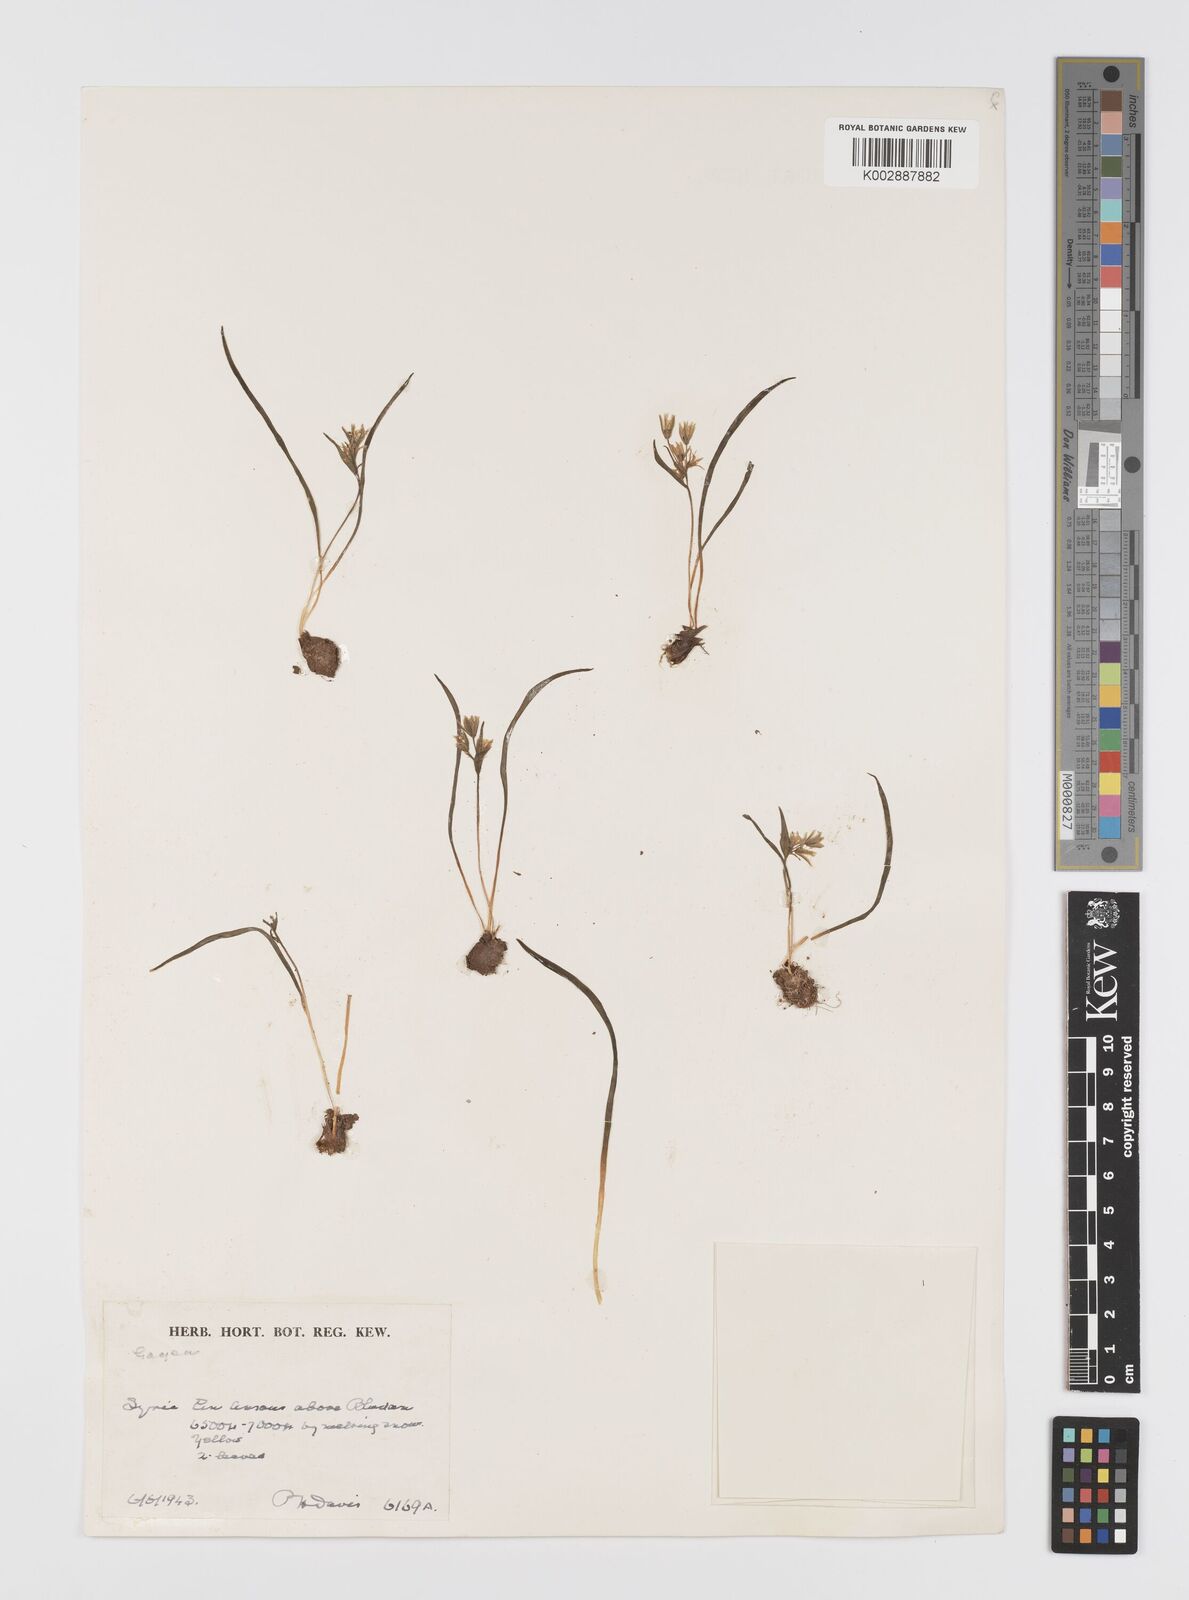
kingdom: Plantae
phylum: Tracheophyta
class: Liliopsida
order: Liliales
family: Liliaceae
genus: Gagea
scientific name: Gagea micrantha
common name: Small-flowered gagea
